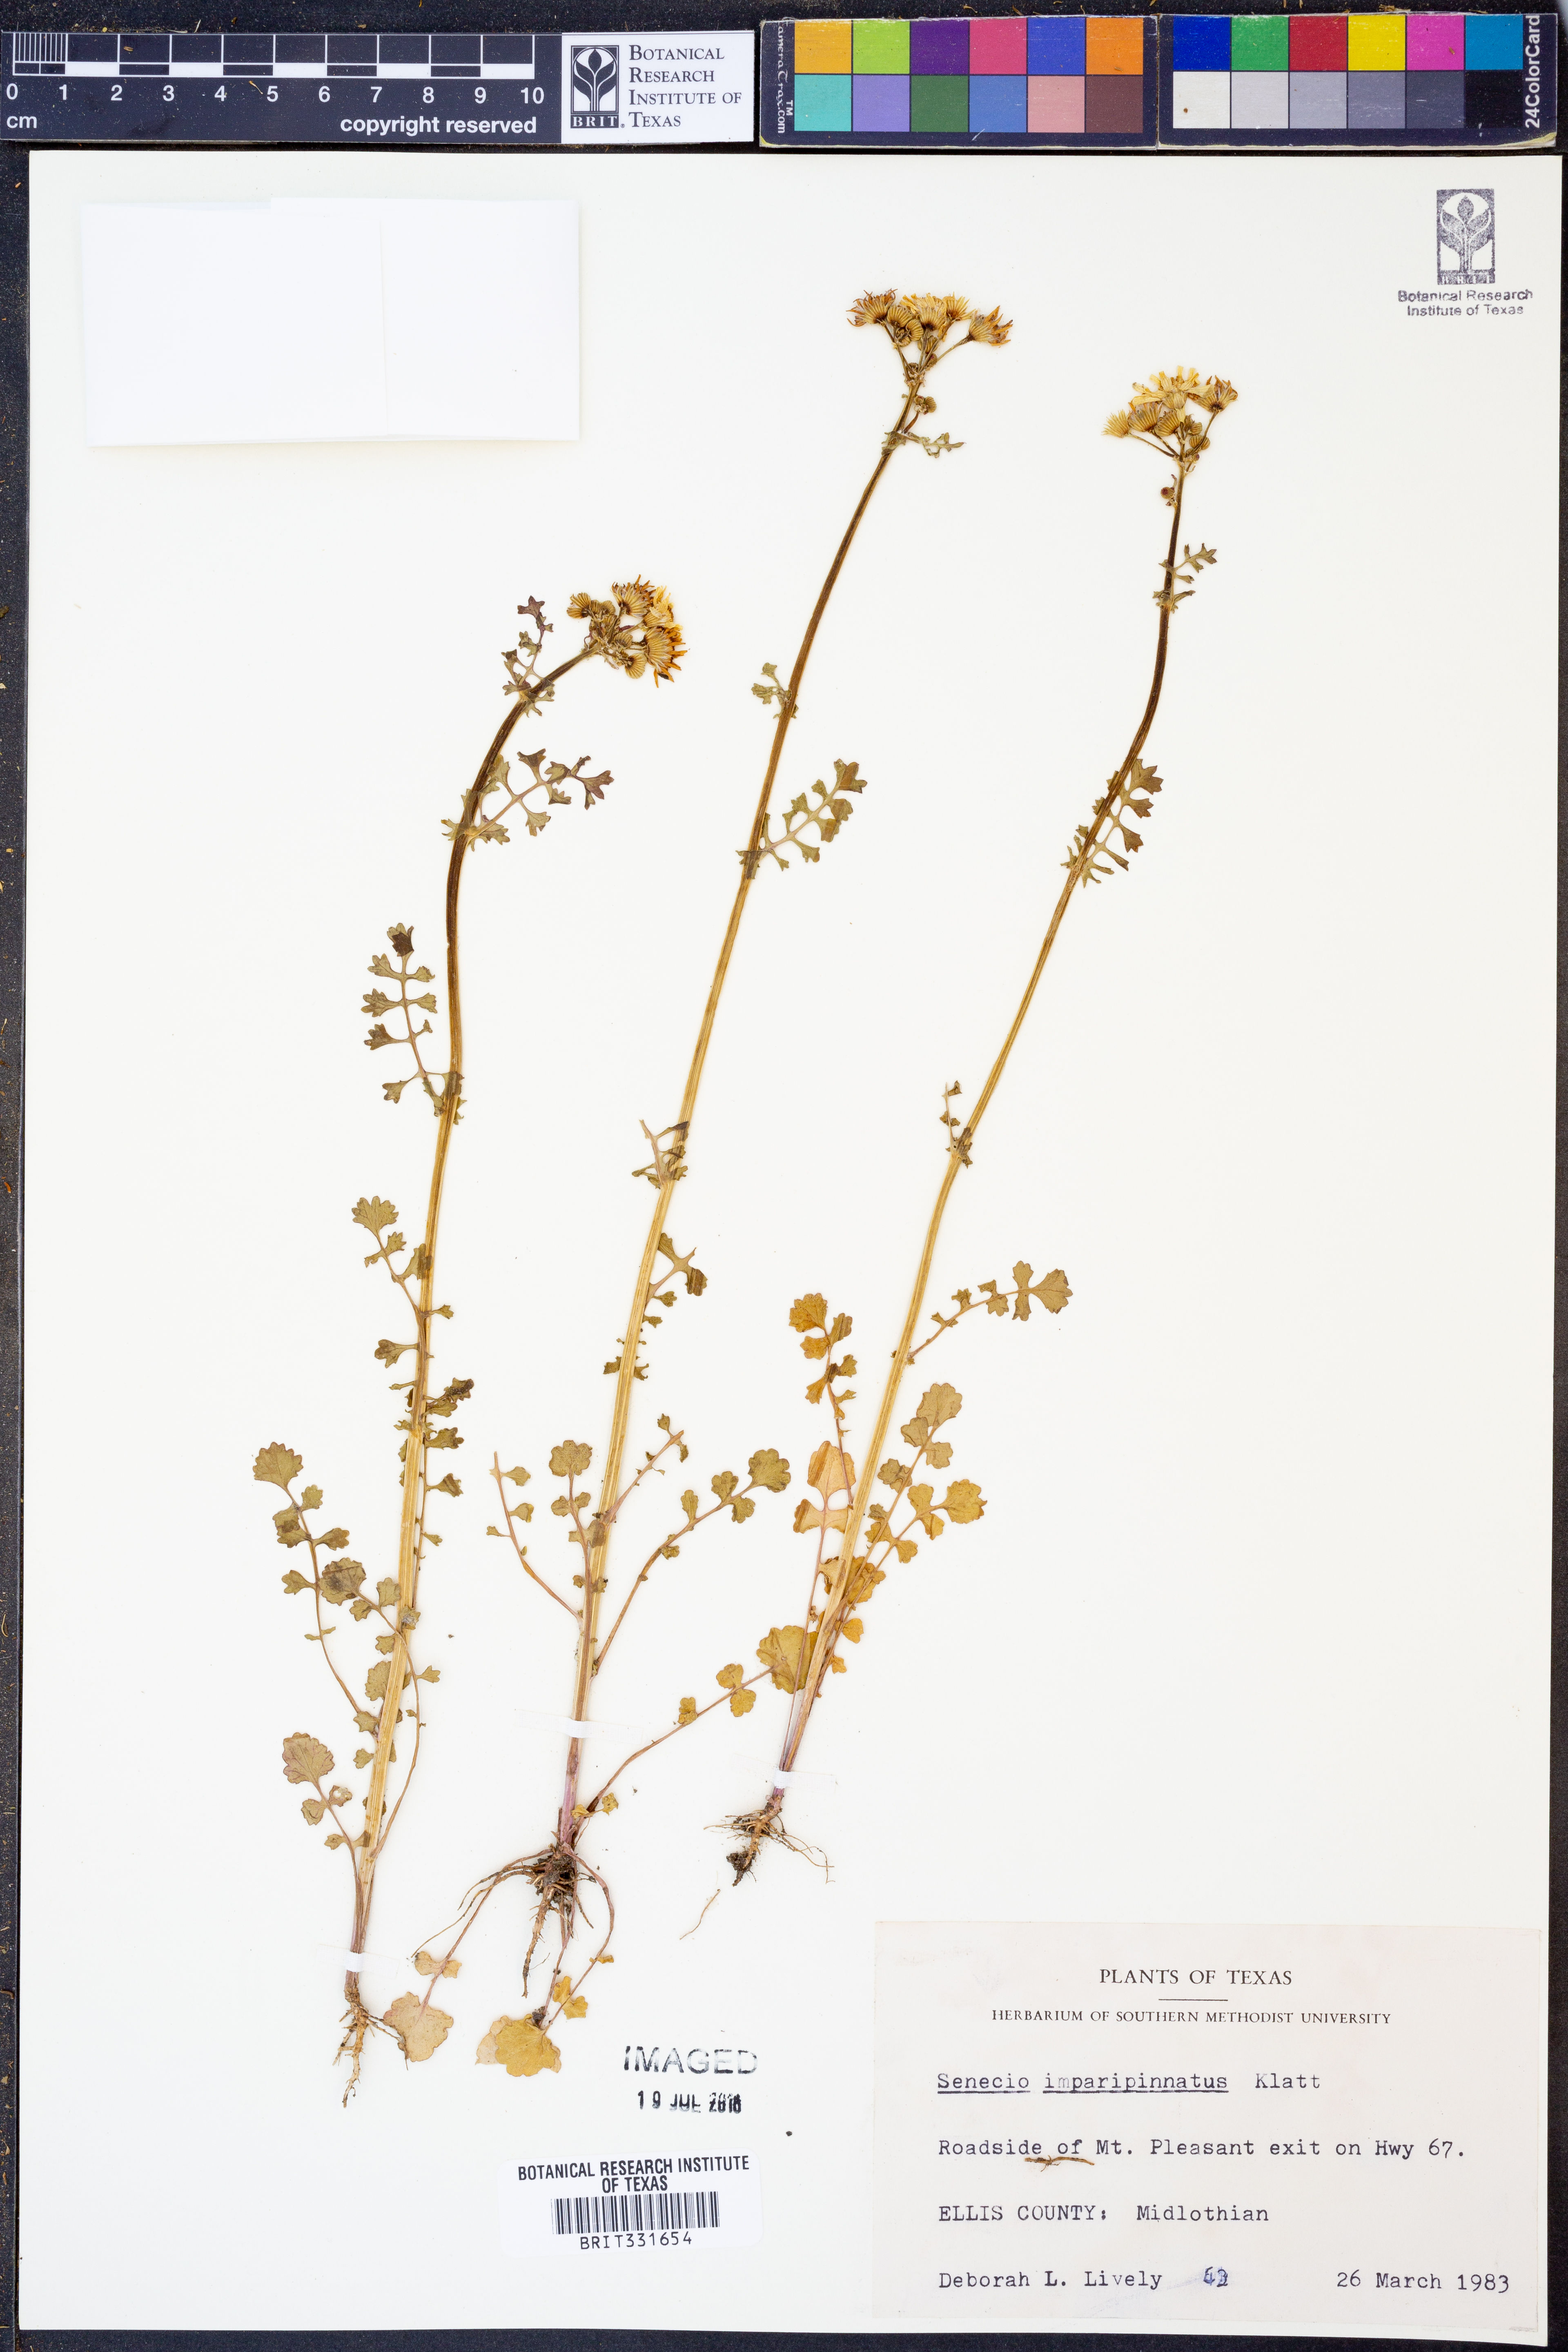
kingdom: Plantae
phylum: Tracheophyta
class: Magnoliopsida
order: Asterales
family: Asteraceae
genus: Packera
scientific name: Packera tampicana
